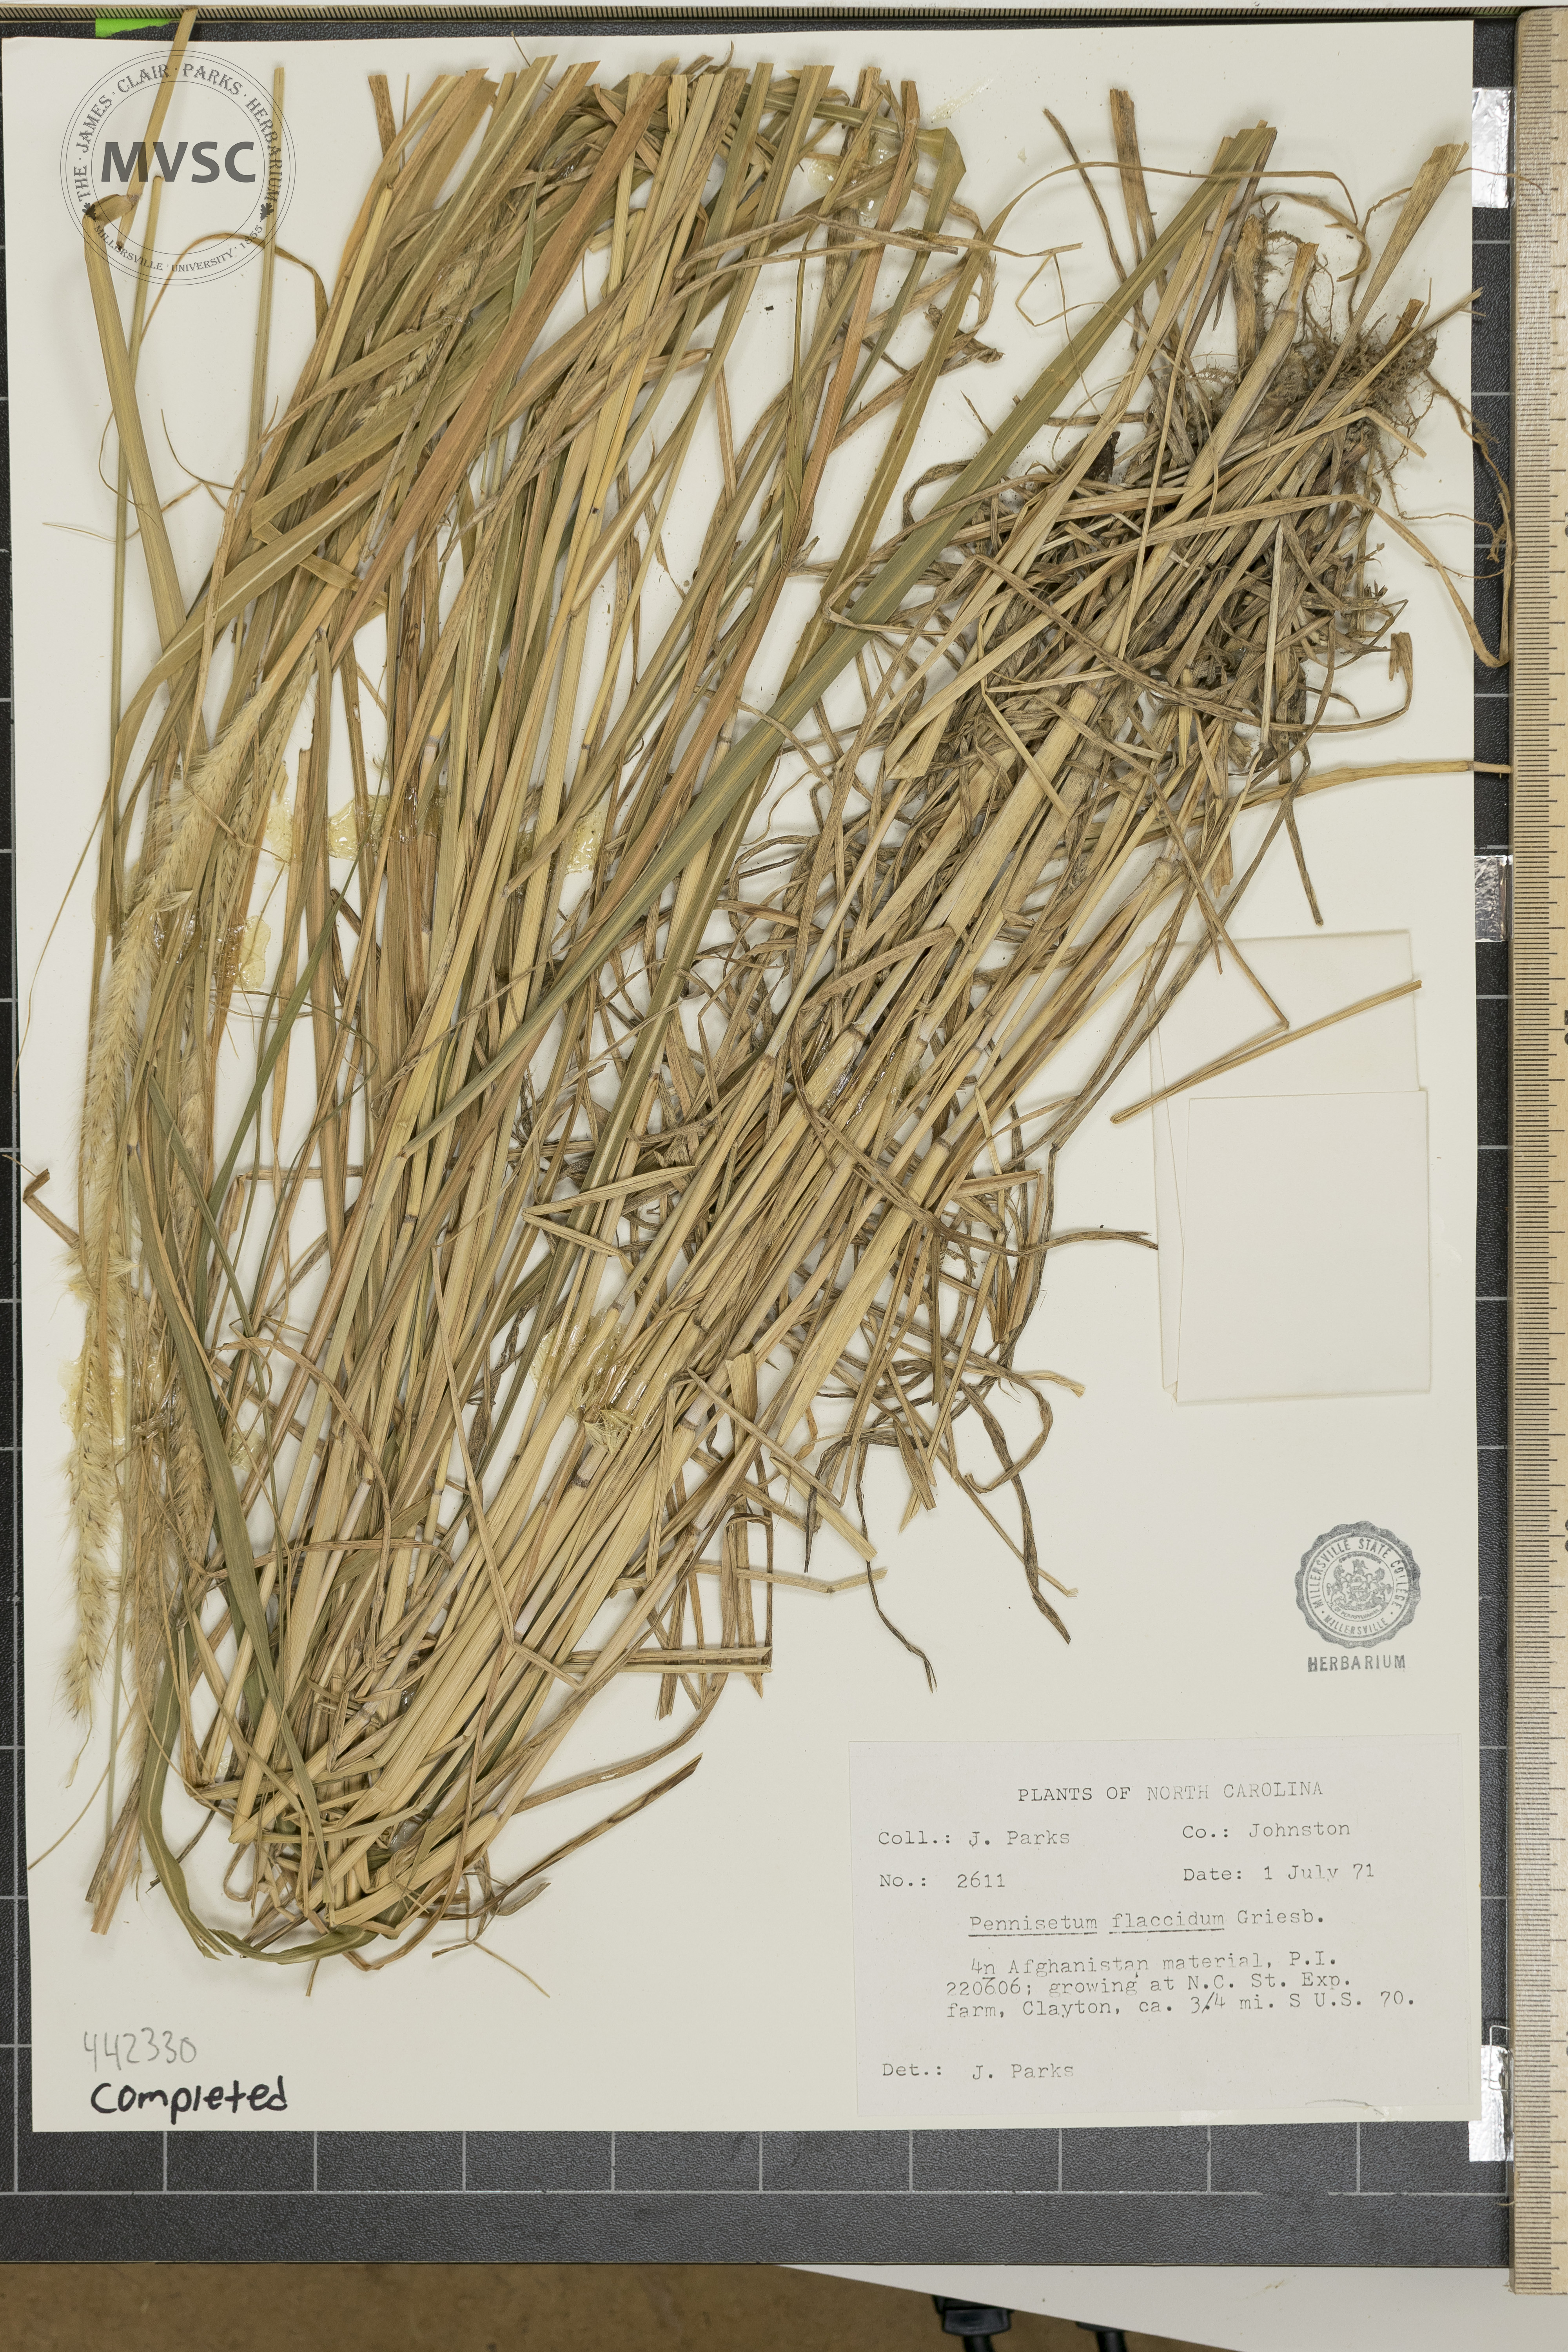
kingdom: Plantae
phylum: Tracheophyta
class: Liliopsida
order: Poales
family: Poaceae
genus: Cenchrus
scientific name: Cenchrus flaccidus
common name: Flaccid grass
